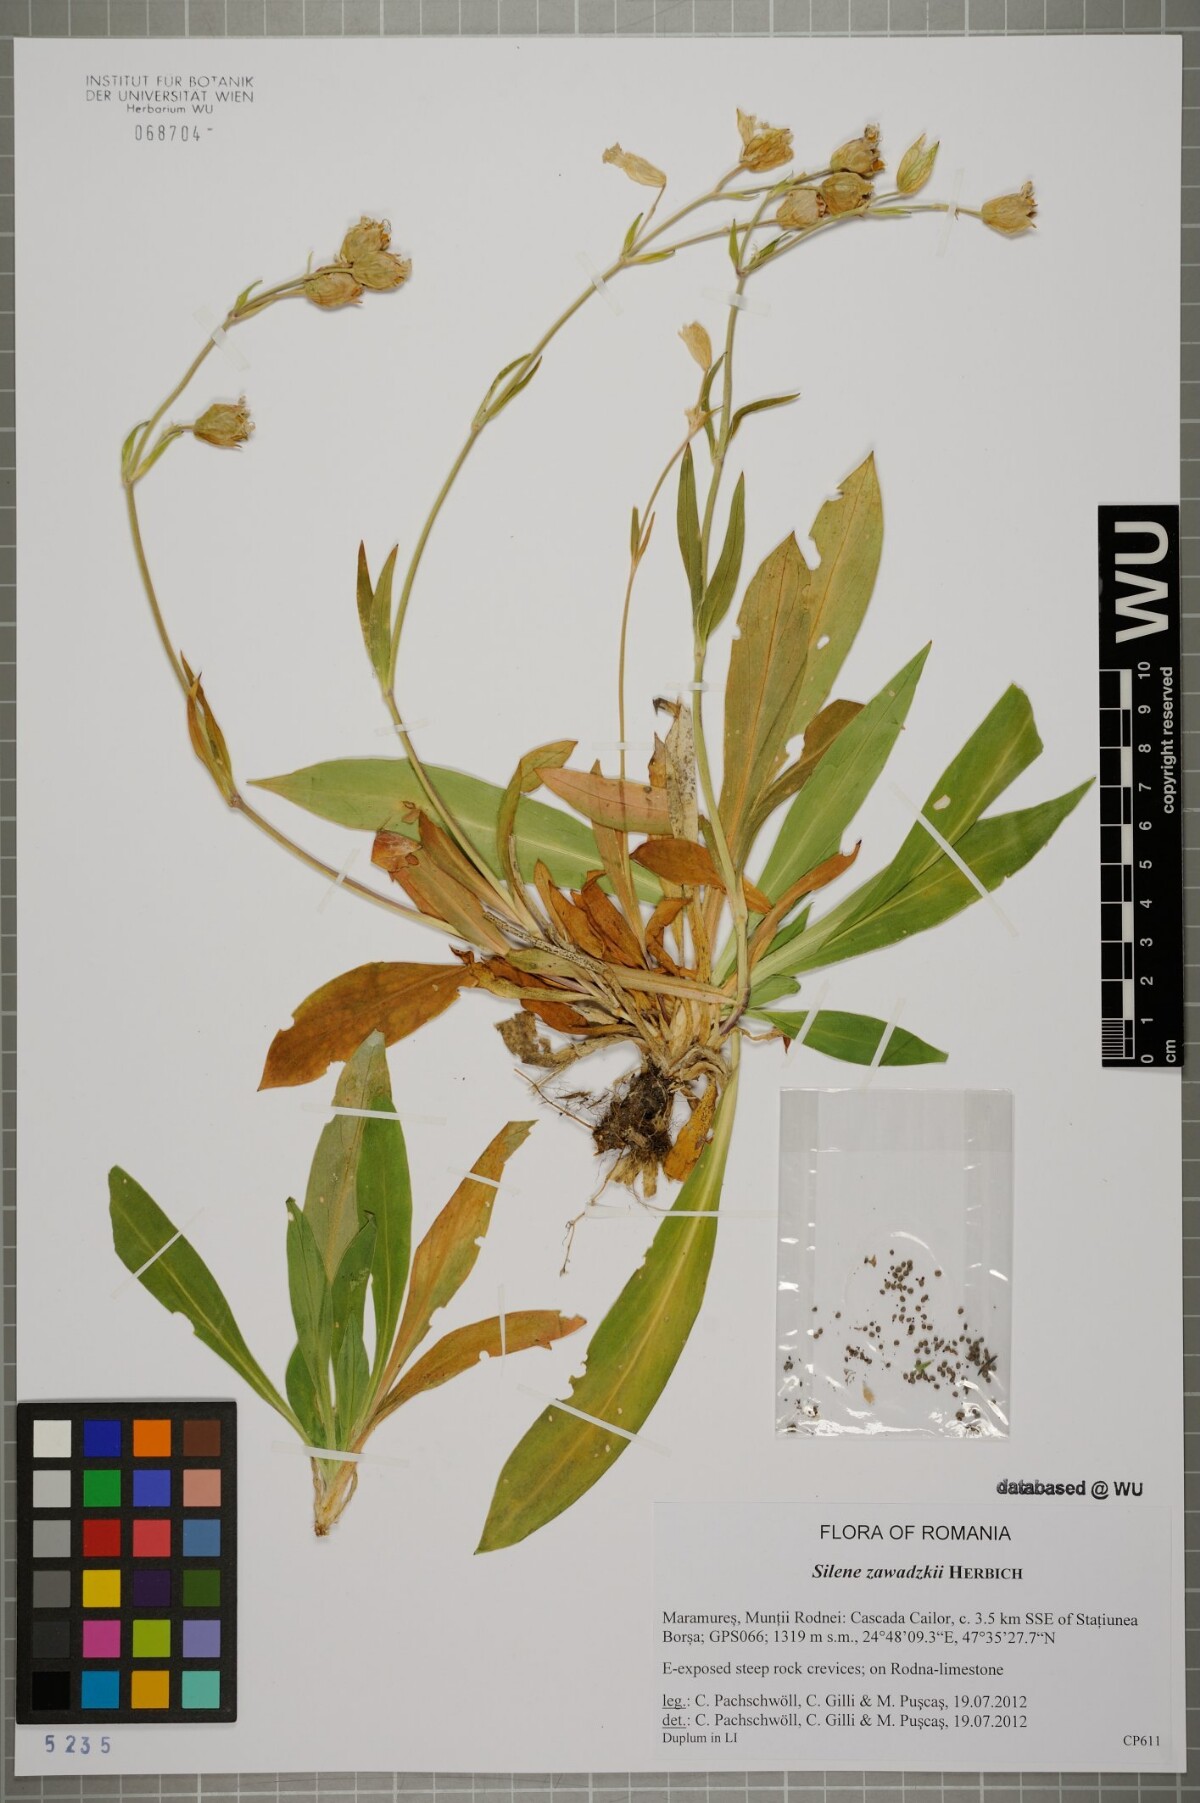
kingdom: Plantae
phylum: Tracheophyta
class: Magnoliopsida
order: Caryophyllales
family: Caryophyllaceae
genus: Silene
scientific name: Silene zawadzkii
